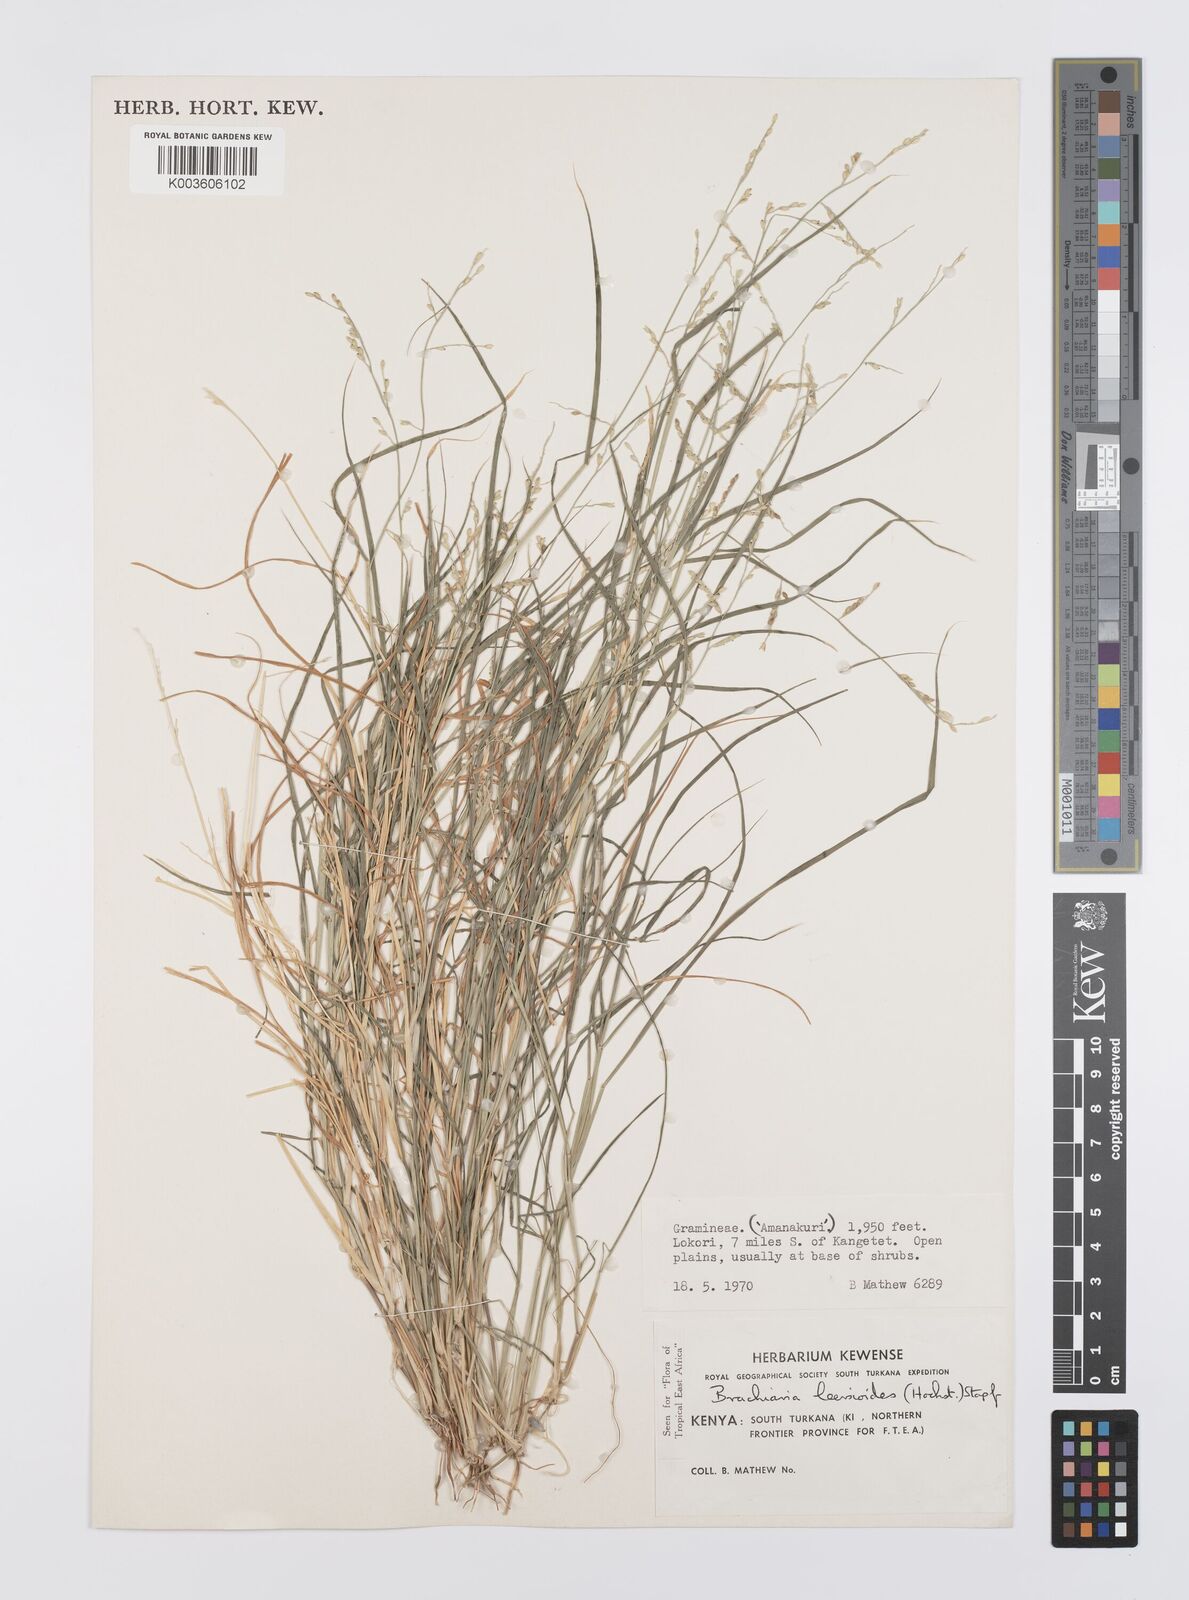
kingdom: Plantae
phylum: Tracheophyta
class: Liliopsida
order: Poales
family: Poaceae
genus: Urochloa
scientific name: Urochloa leersioides
